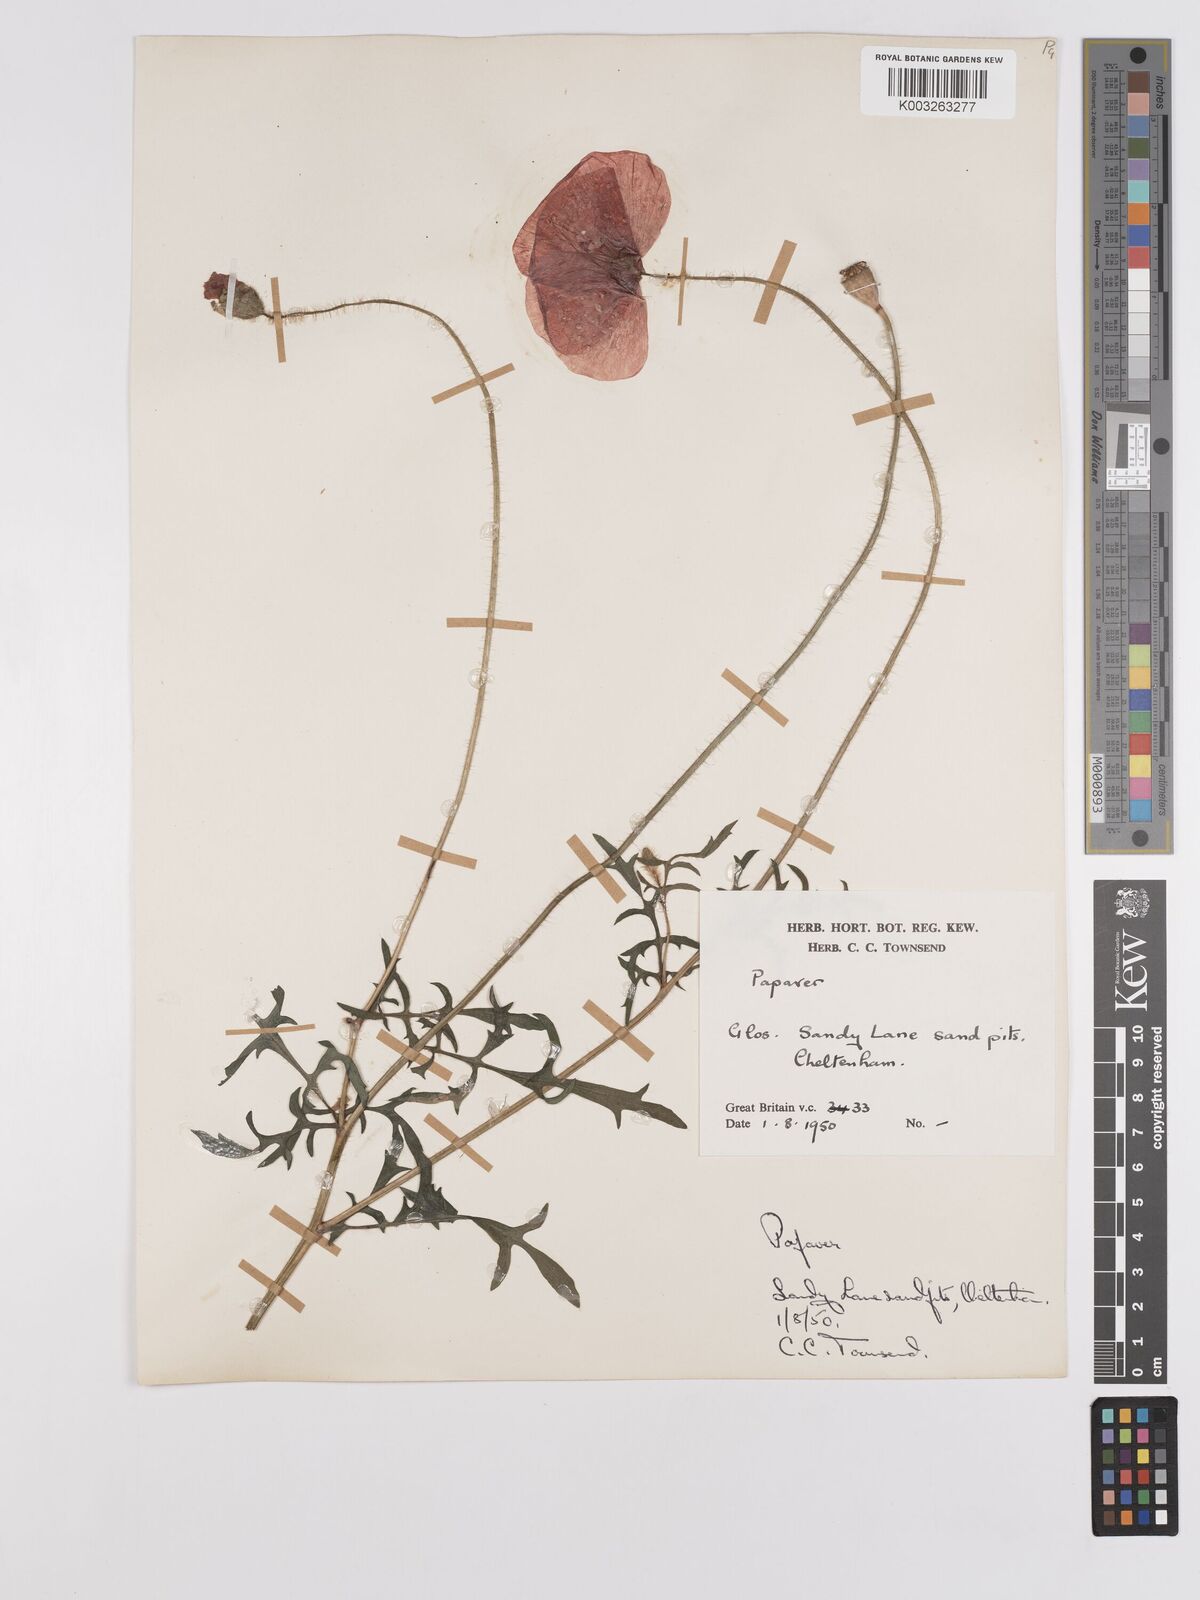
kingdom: Plantae
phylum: Tracheophyta
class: Magnoliopsida
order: Ranunculales
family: Papaveraceae
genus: Papaver
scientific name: Papaver
